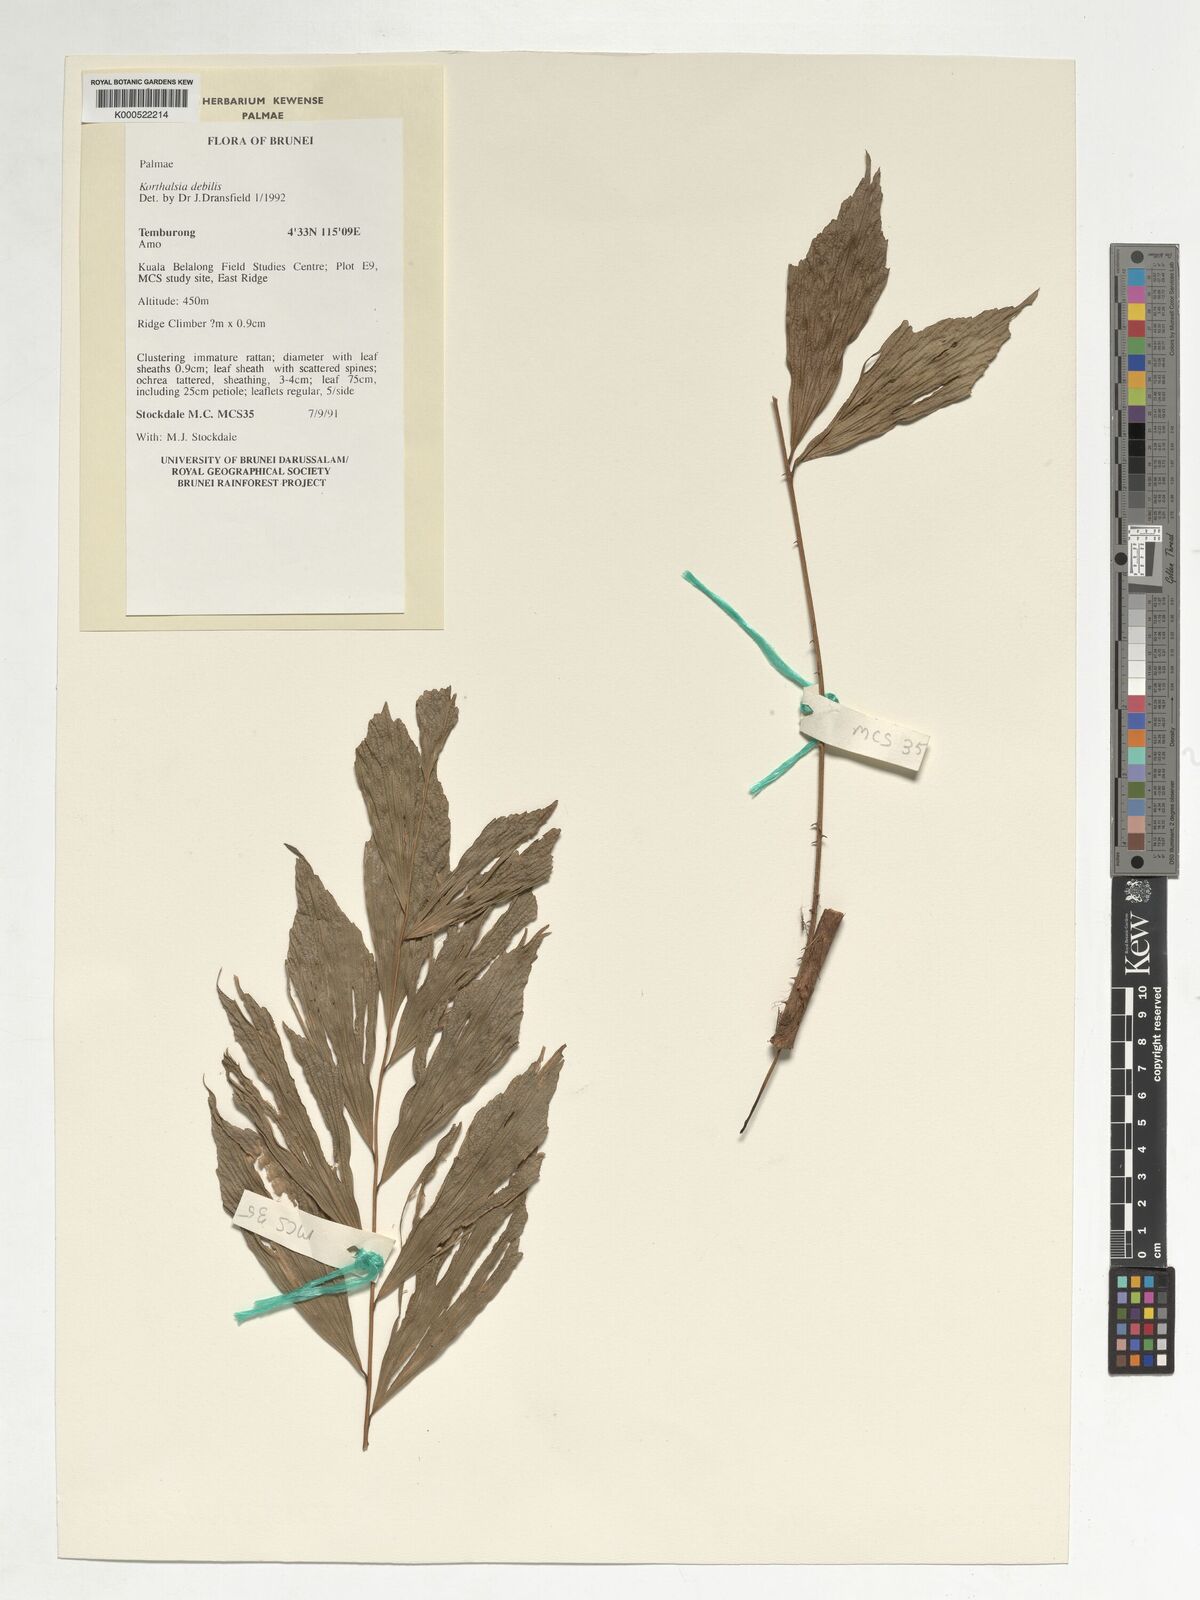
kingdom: Plantae
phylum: Tracheophyta
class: Liliopsida
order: Arecales
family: Arecaceae
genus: Korthalsia
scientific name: Korthalsia debilis
